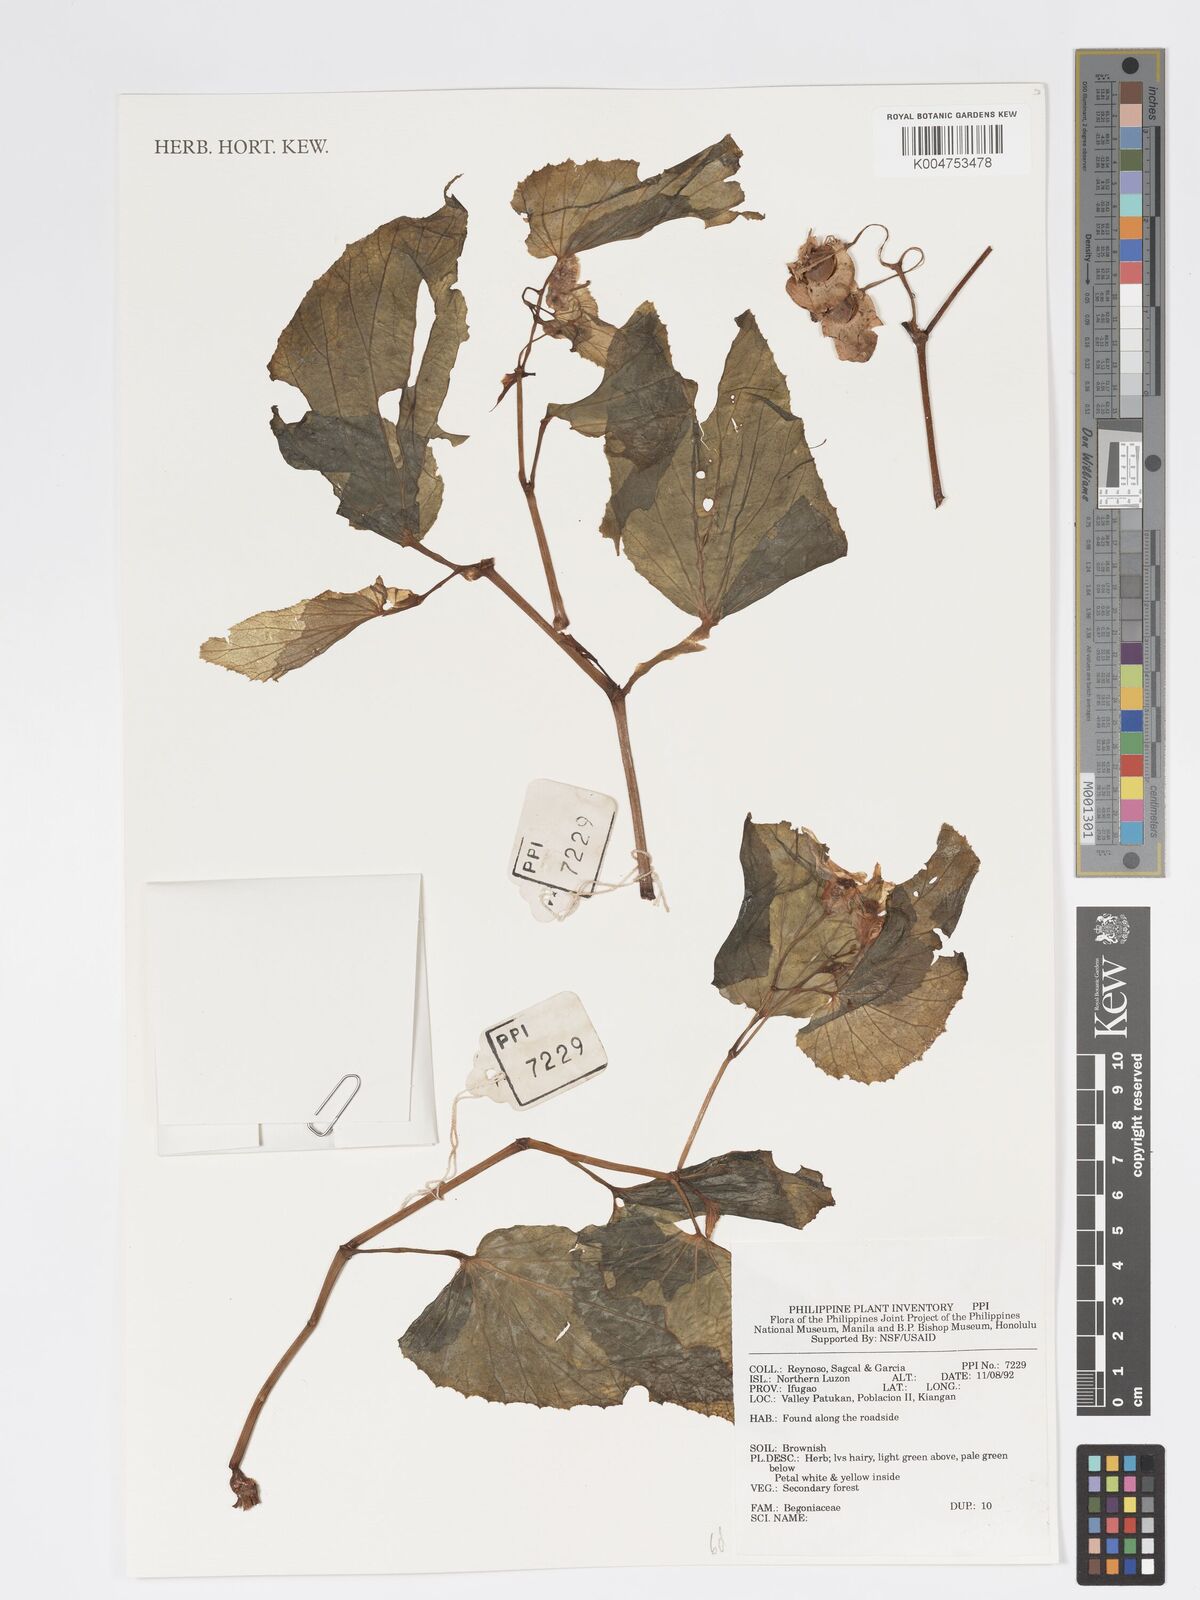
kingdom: Plantae
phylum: Tracheophyta
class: Magnoliopsida
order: Cucurbitales
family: Begoniaceae
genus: Begonia
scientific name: Begonia
